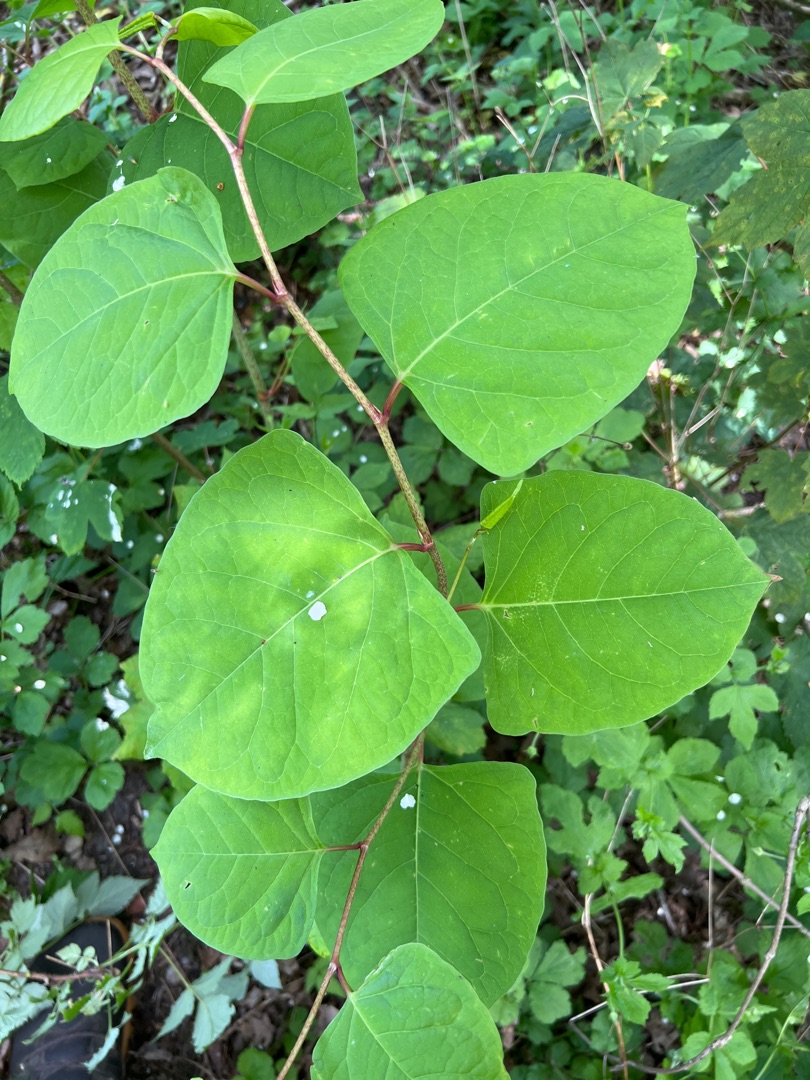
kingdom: Plantae
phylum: Tracheophyta
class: Magnoliopsida
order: Caryophyllales
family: Polygonaceae
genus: Reynoutria
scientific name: Reynoutria japonica
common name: Japan-pileurt
